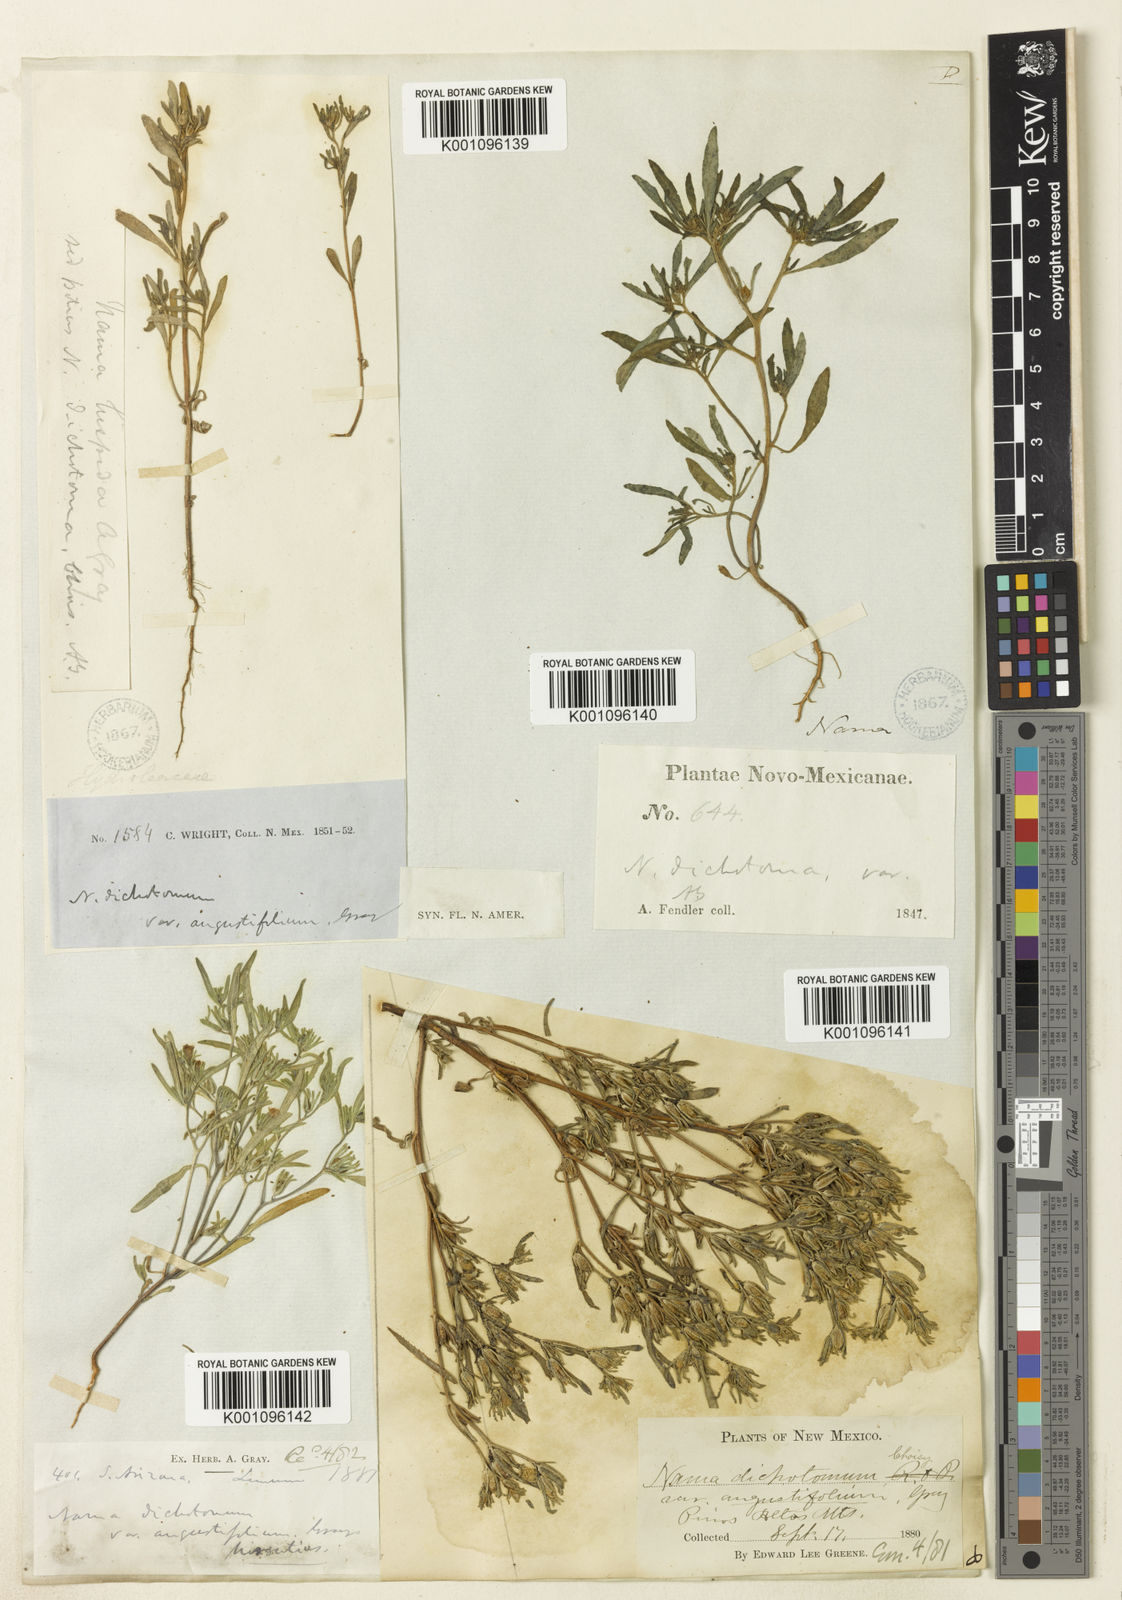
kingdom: Plantae
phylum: Tracheophyta
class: Magnoliopsida
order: Boraginales
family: Namaceae
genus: Nama
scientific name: Nama dichotoma
